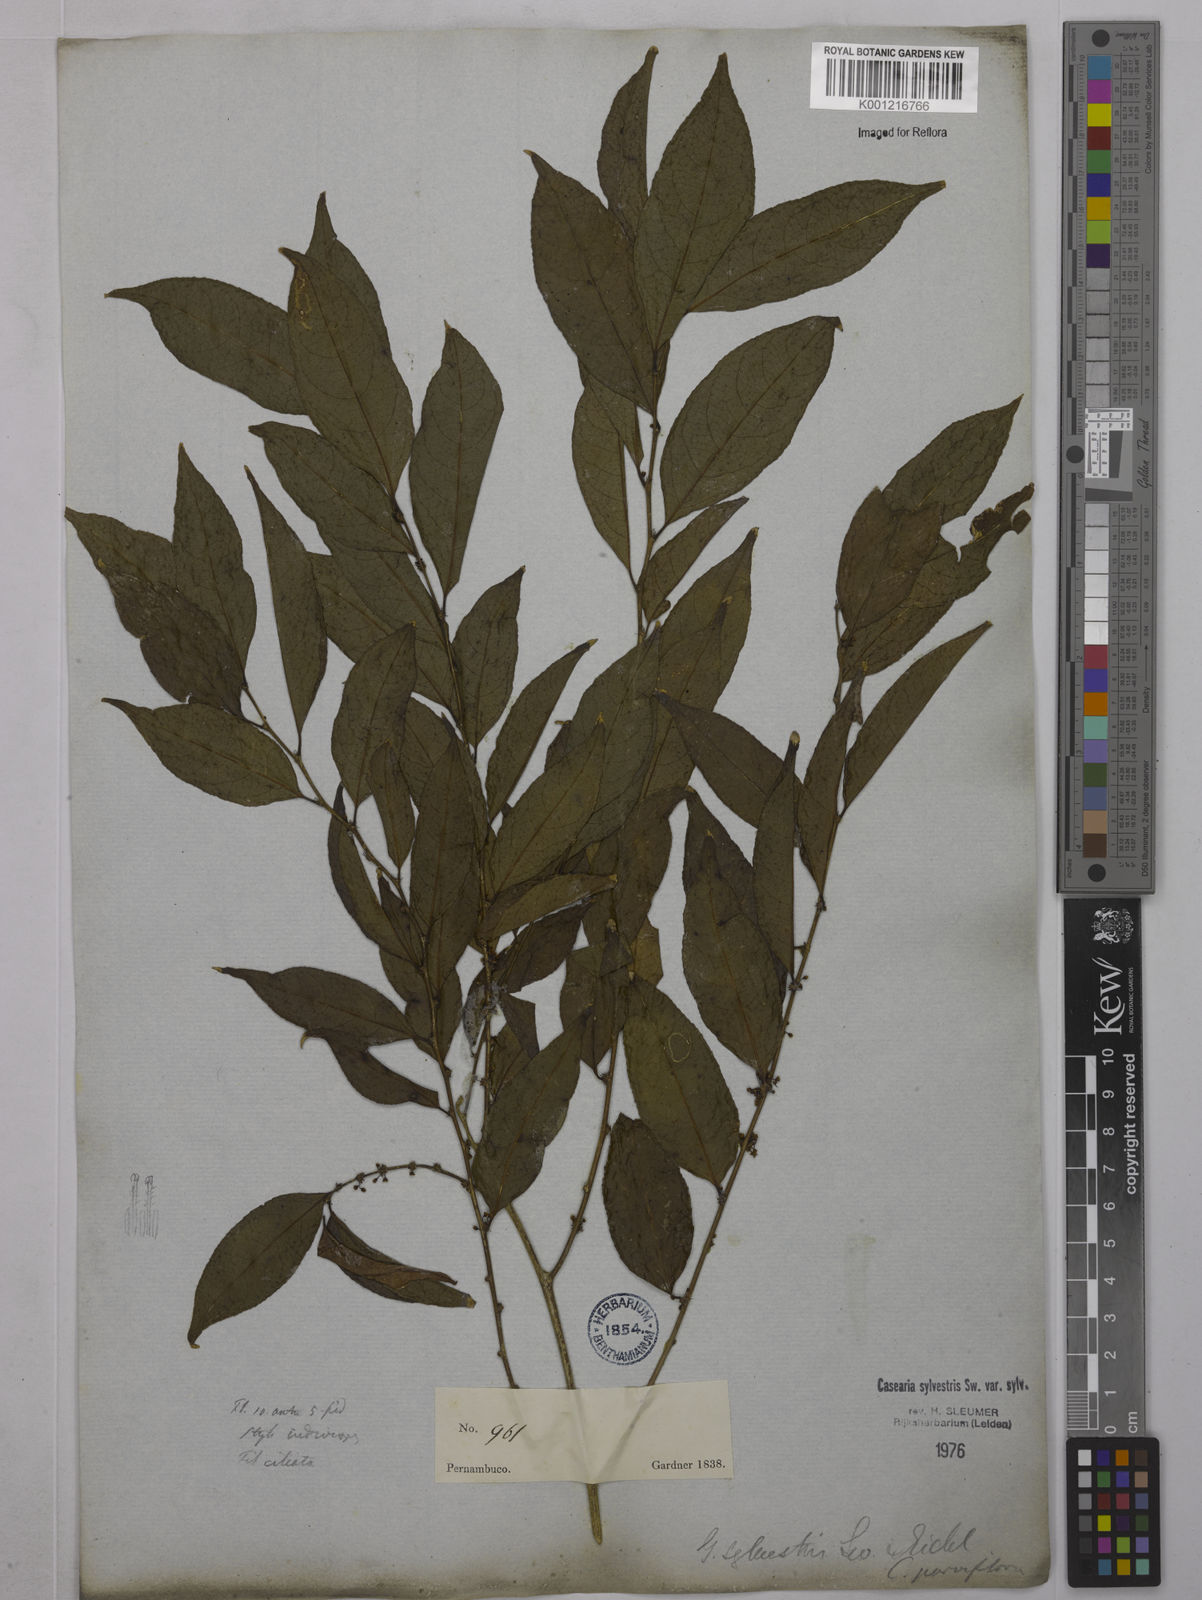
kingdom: Plantae
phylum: Tracheophyta
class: Magnoliopsida
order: Malpighiales
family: Salicaceae
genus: Casearia
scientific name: Casearia sylvestris
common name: Wild sage
